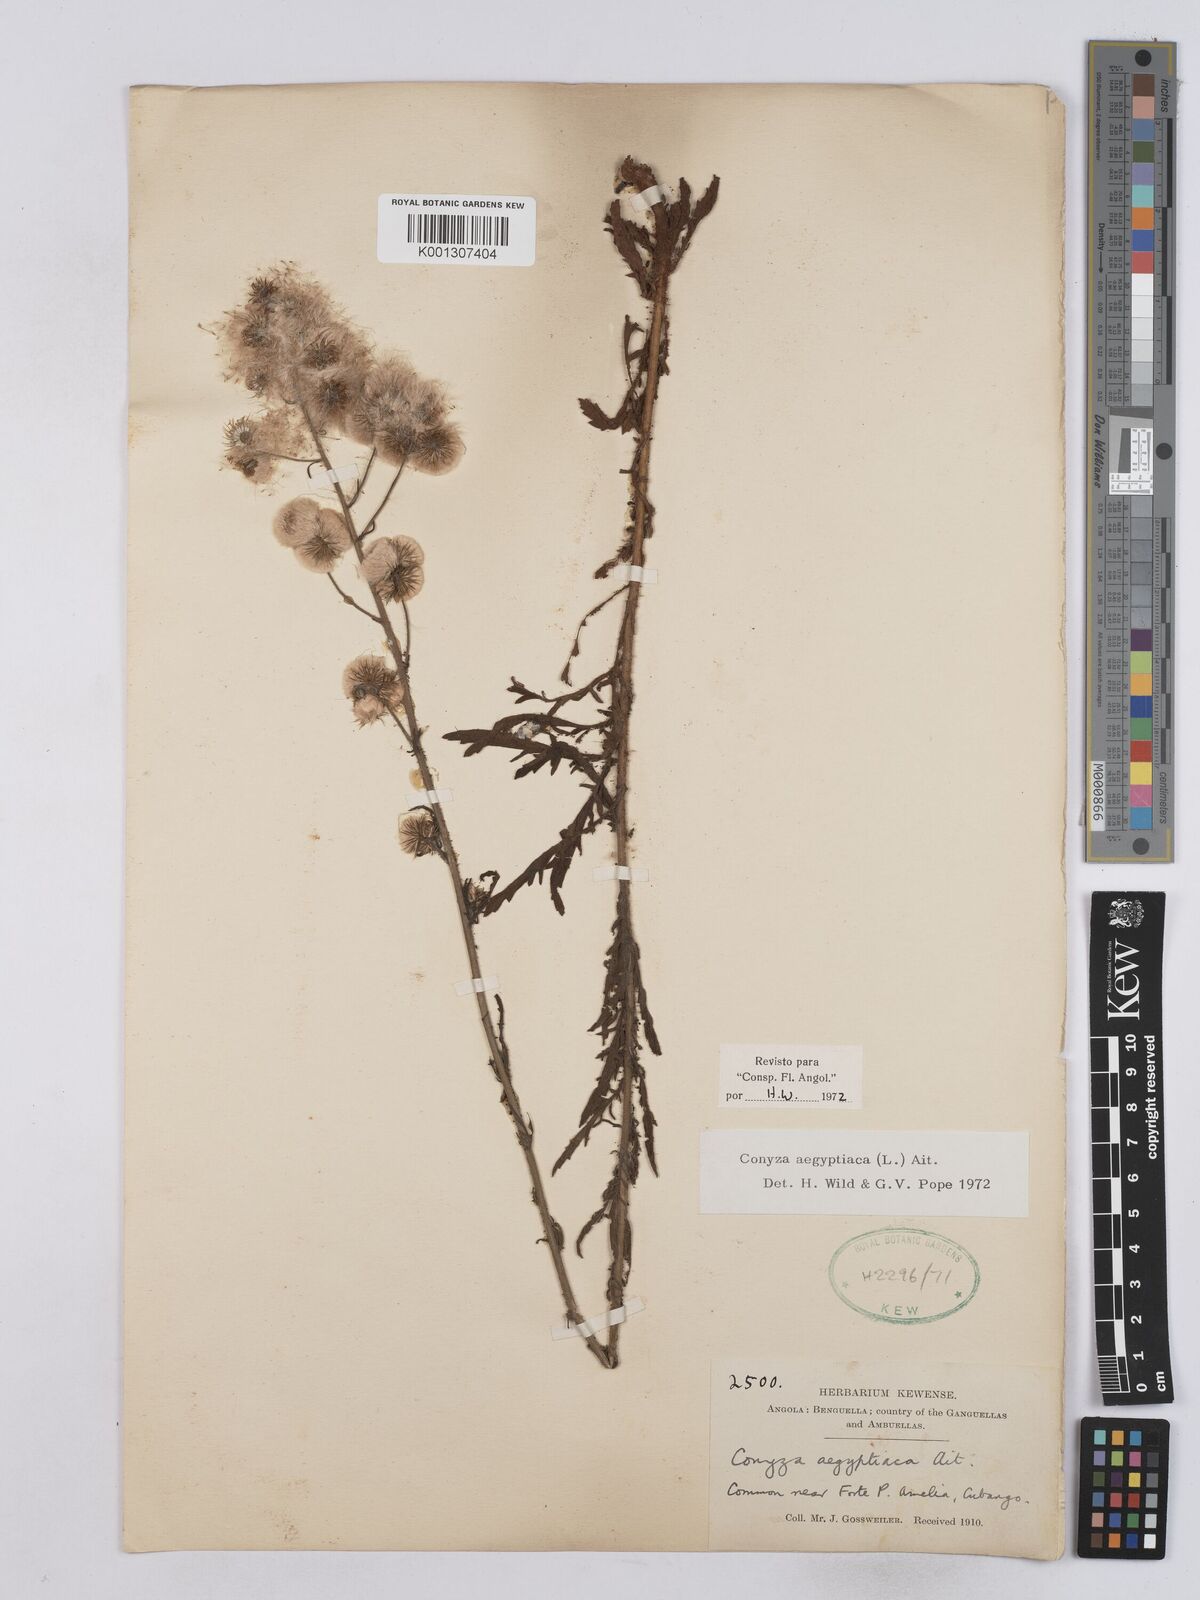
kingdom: Plantae
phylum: Tracheophyta
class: Magnoliopsida
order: Asterales
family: Asteraceae
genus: Nidorella
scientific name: Nidorella aegyptiaca
